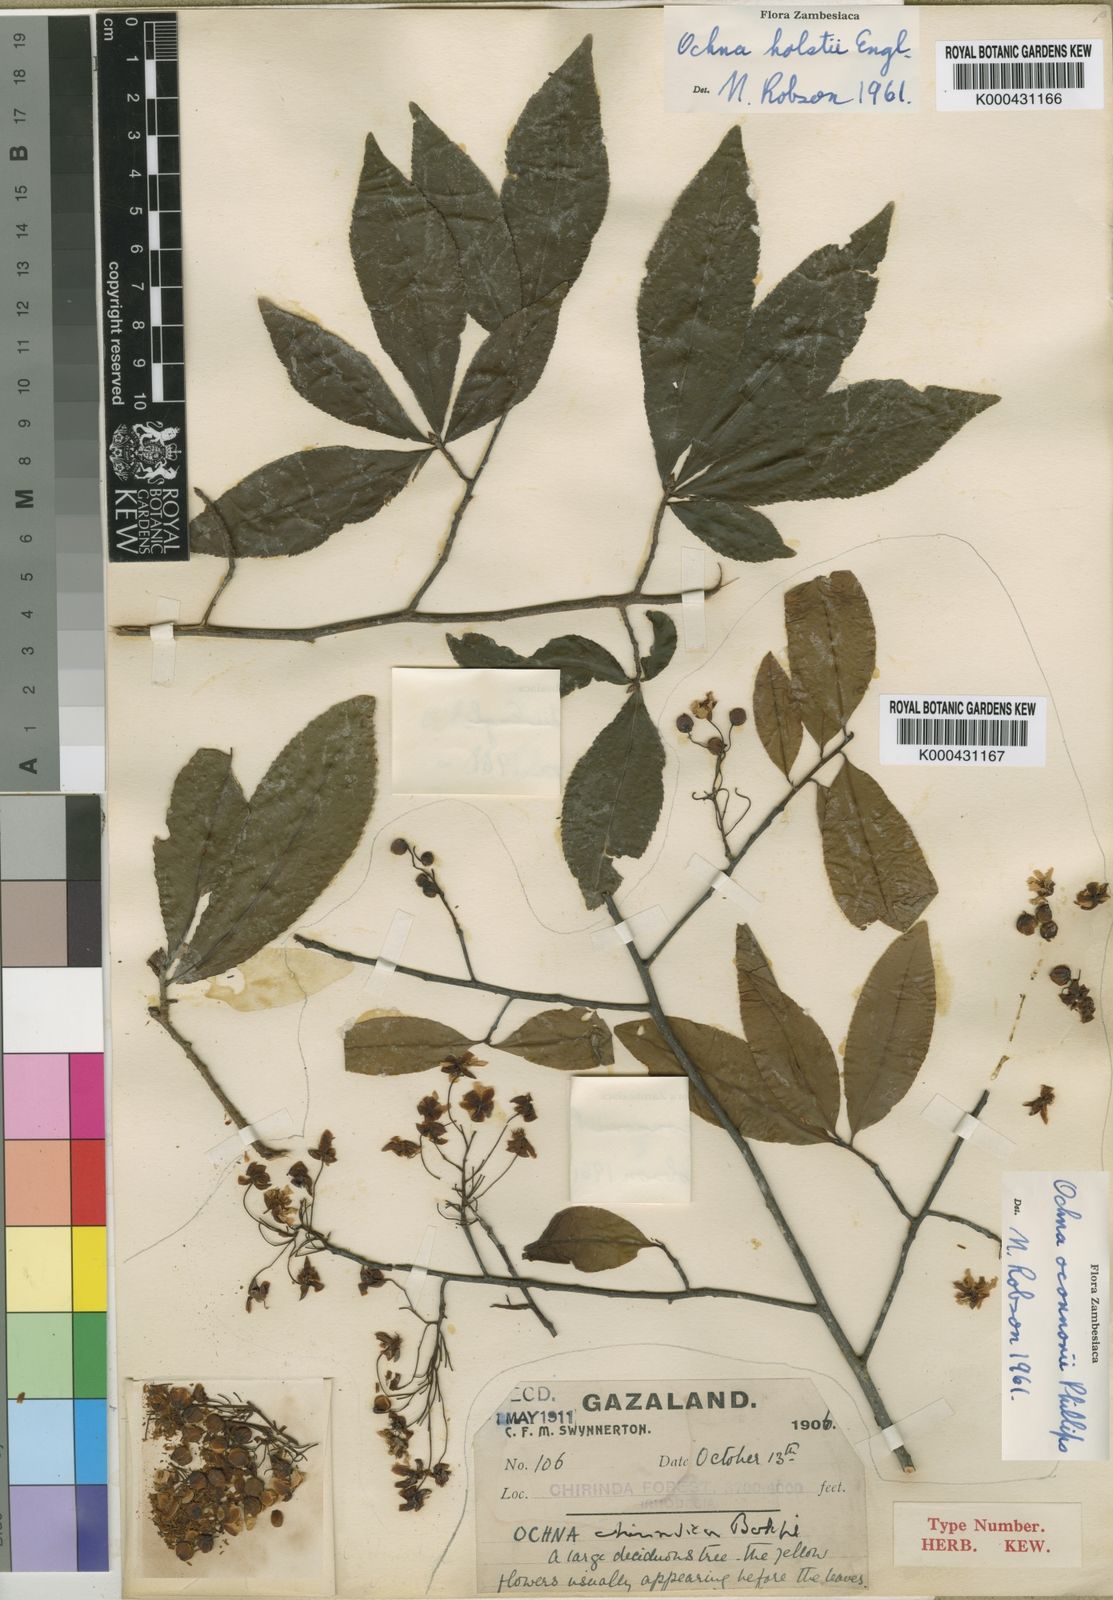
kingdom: Plantae
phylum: Tracheophyta
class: Magnoliopsida
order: Malpighiales
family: Ochnaceae
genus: Ochna
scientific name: Ochna holstii
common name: Red ironwood
